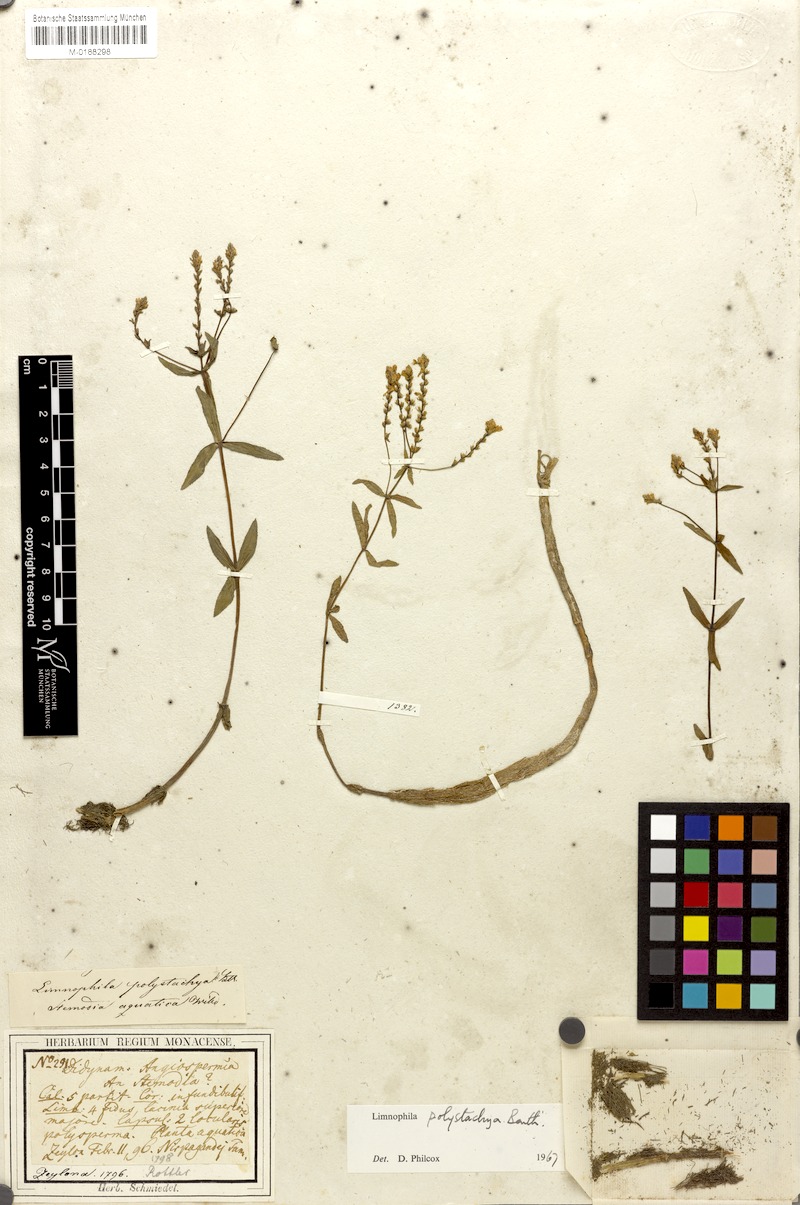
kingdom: Plantae
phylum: Tracheophyta
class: Magnoliopsida
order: Lamiales
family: Plantaginaceae
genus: Limnophila
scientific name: Limnophila polystachya
